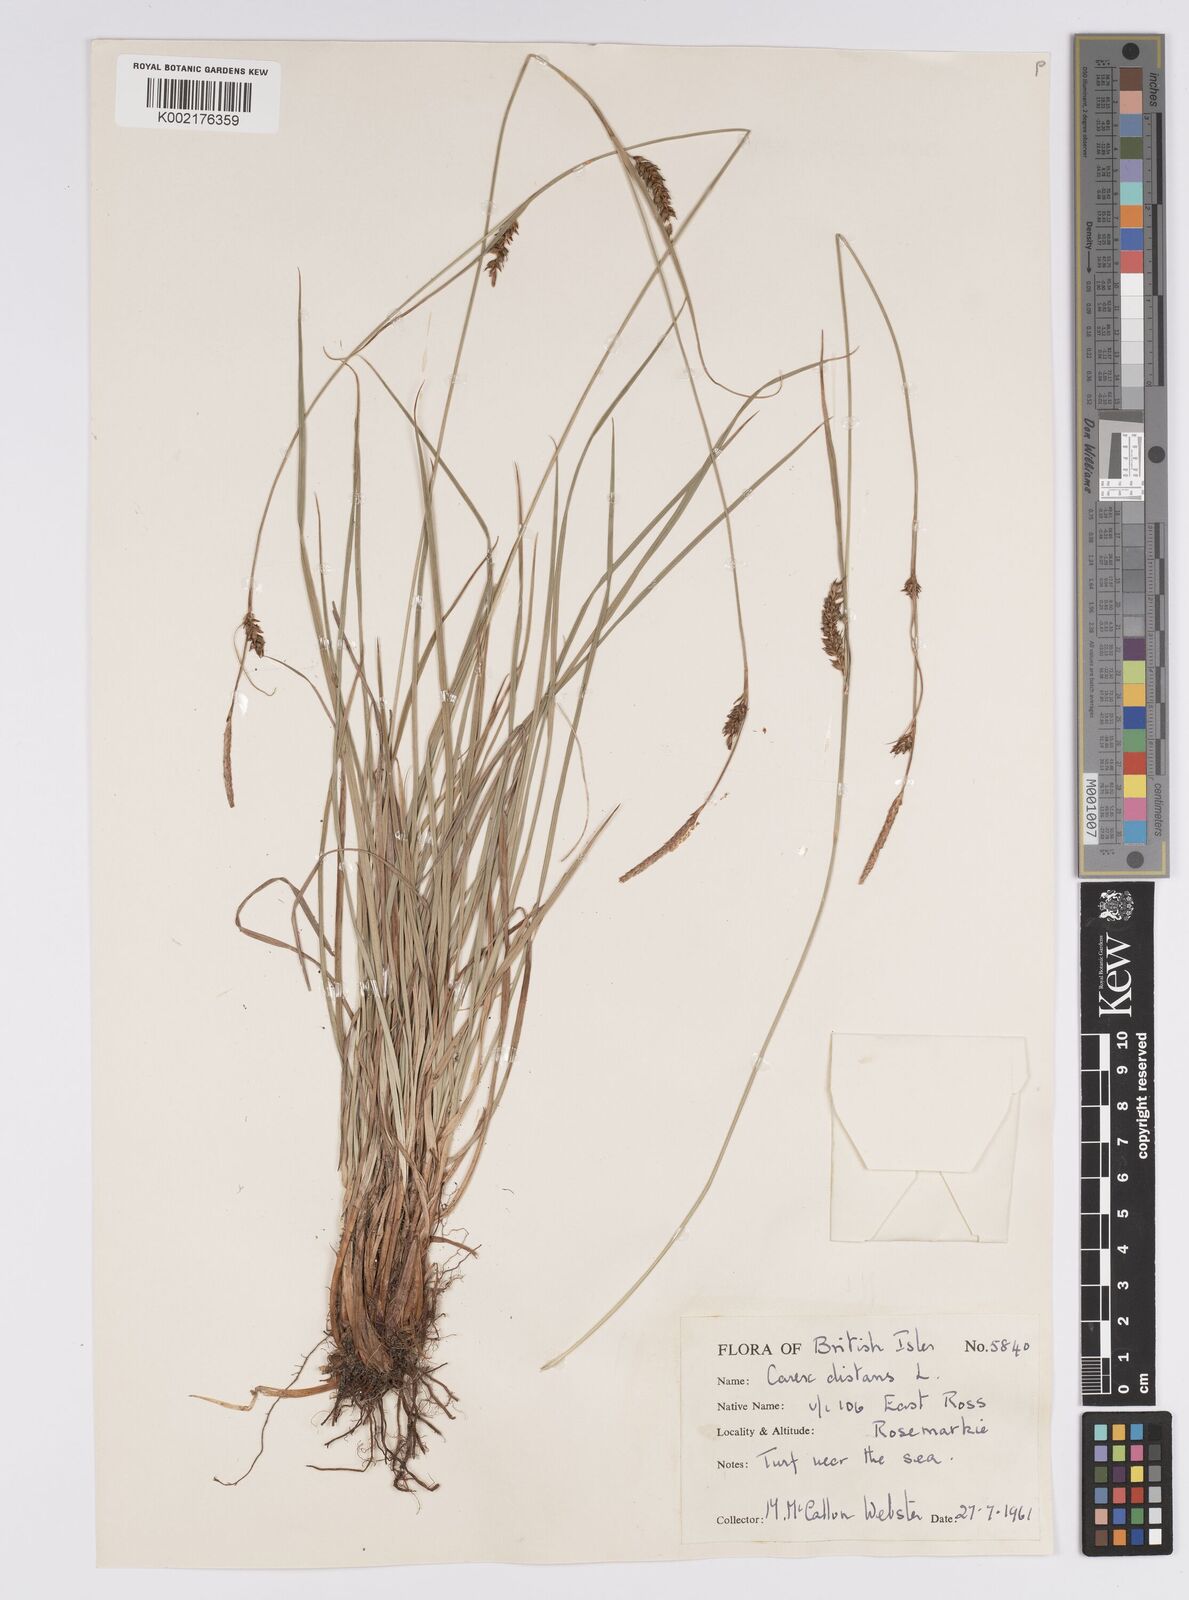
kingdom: Plantae
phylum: Tracheophyta
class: Liliopsida
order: Poales
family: Cyperaceae
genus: Carex
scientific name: Carex distans
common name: Distant sedge
